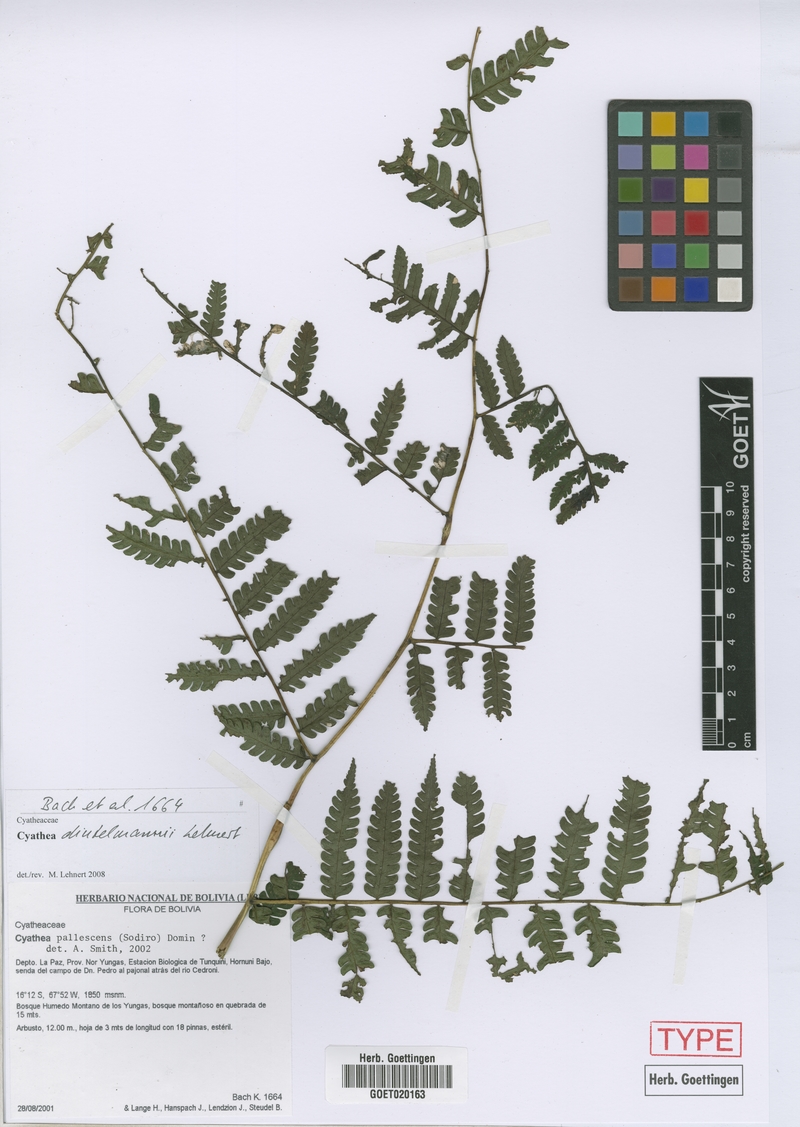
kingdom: Plantae
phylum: Tracheophyta
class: Polypodiopsida
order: Cyatheales
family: Cyatheaceae
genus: Cyathea
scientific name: Cyathea dintelmannii
